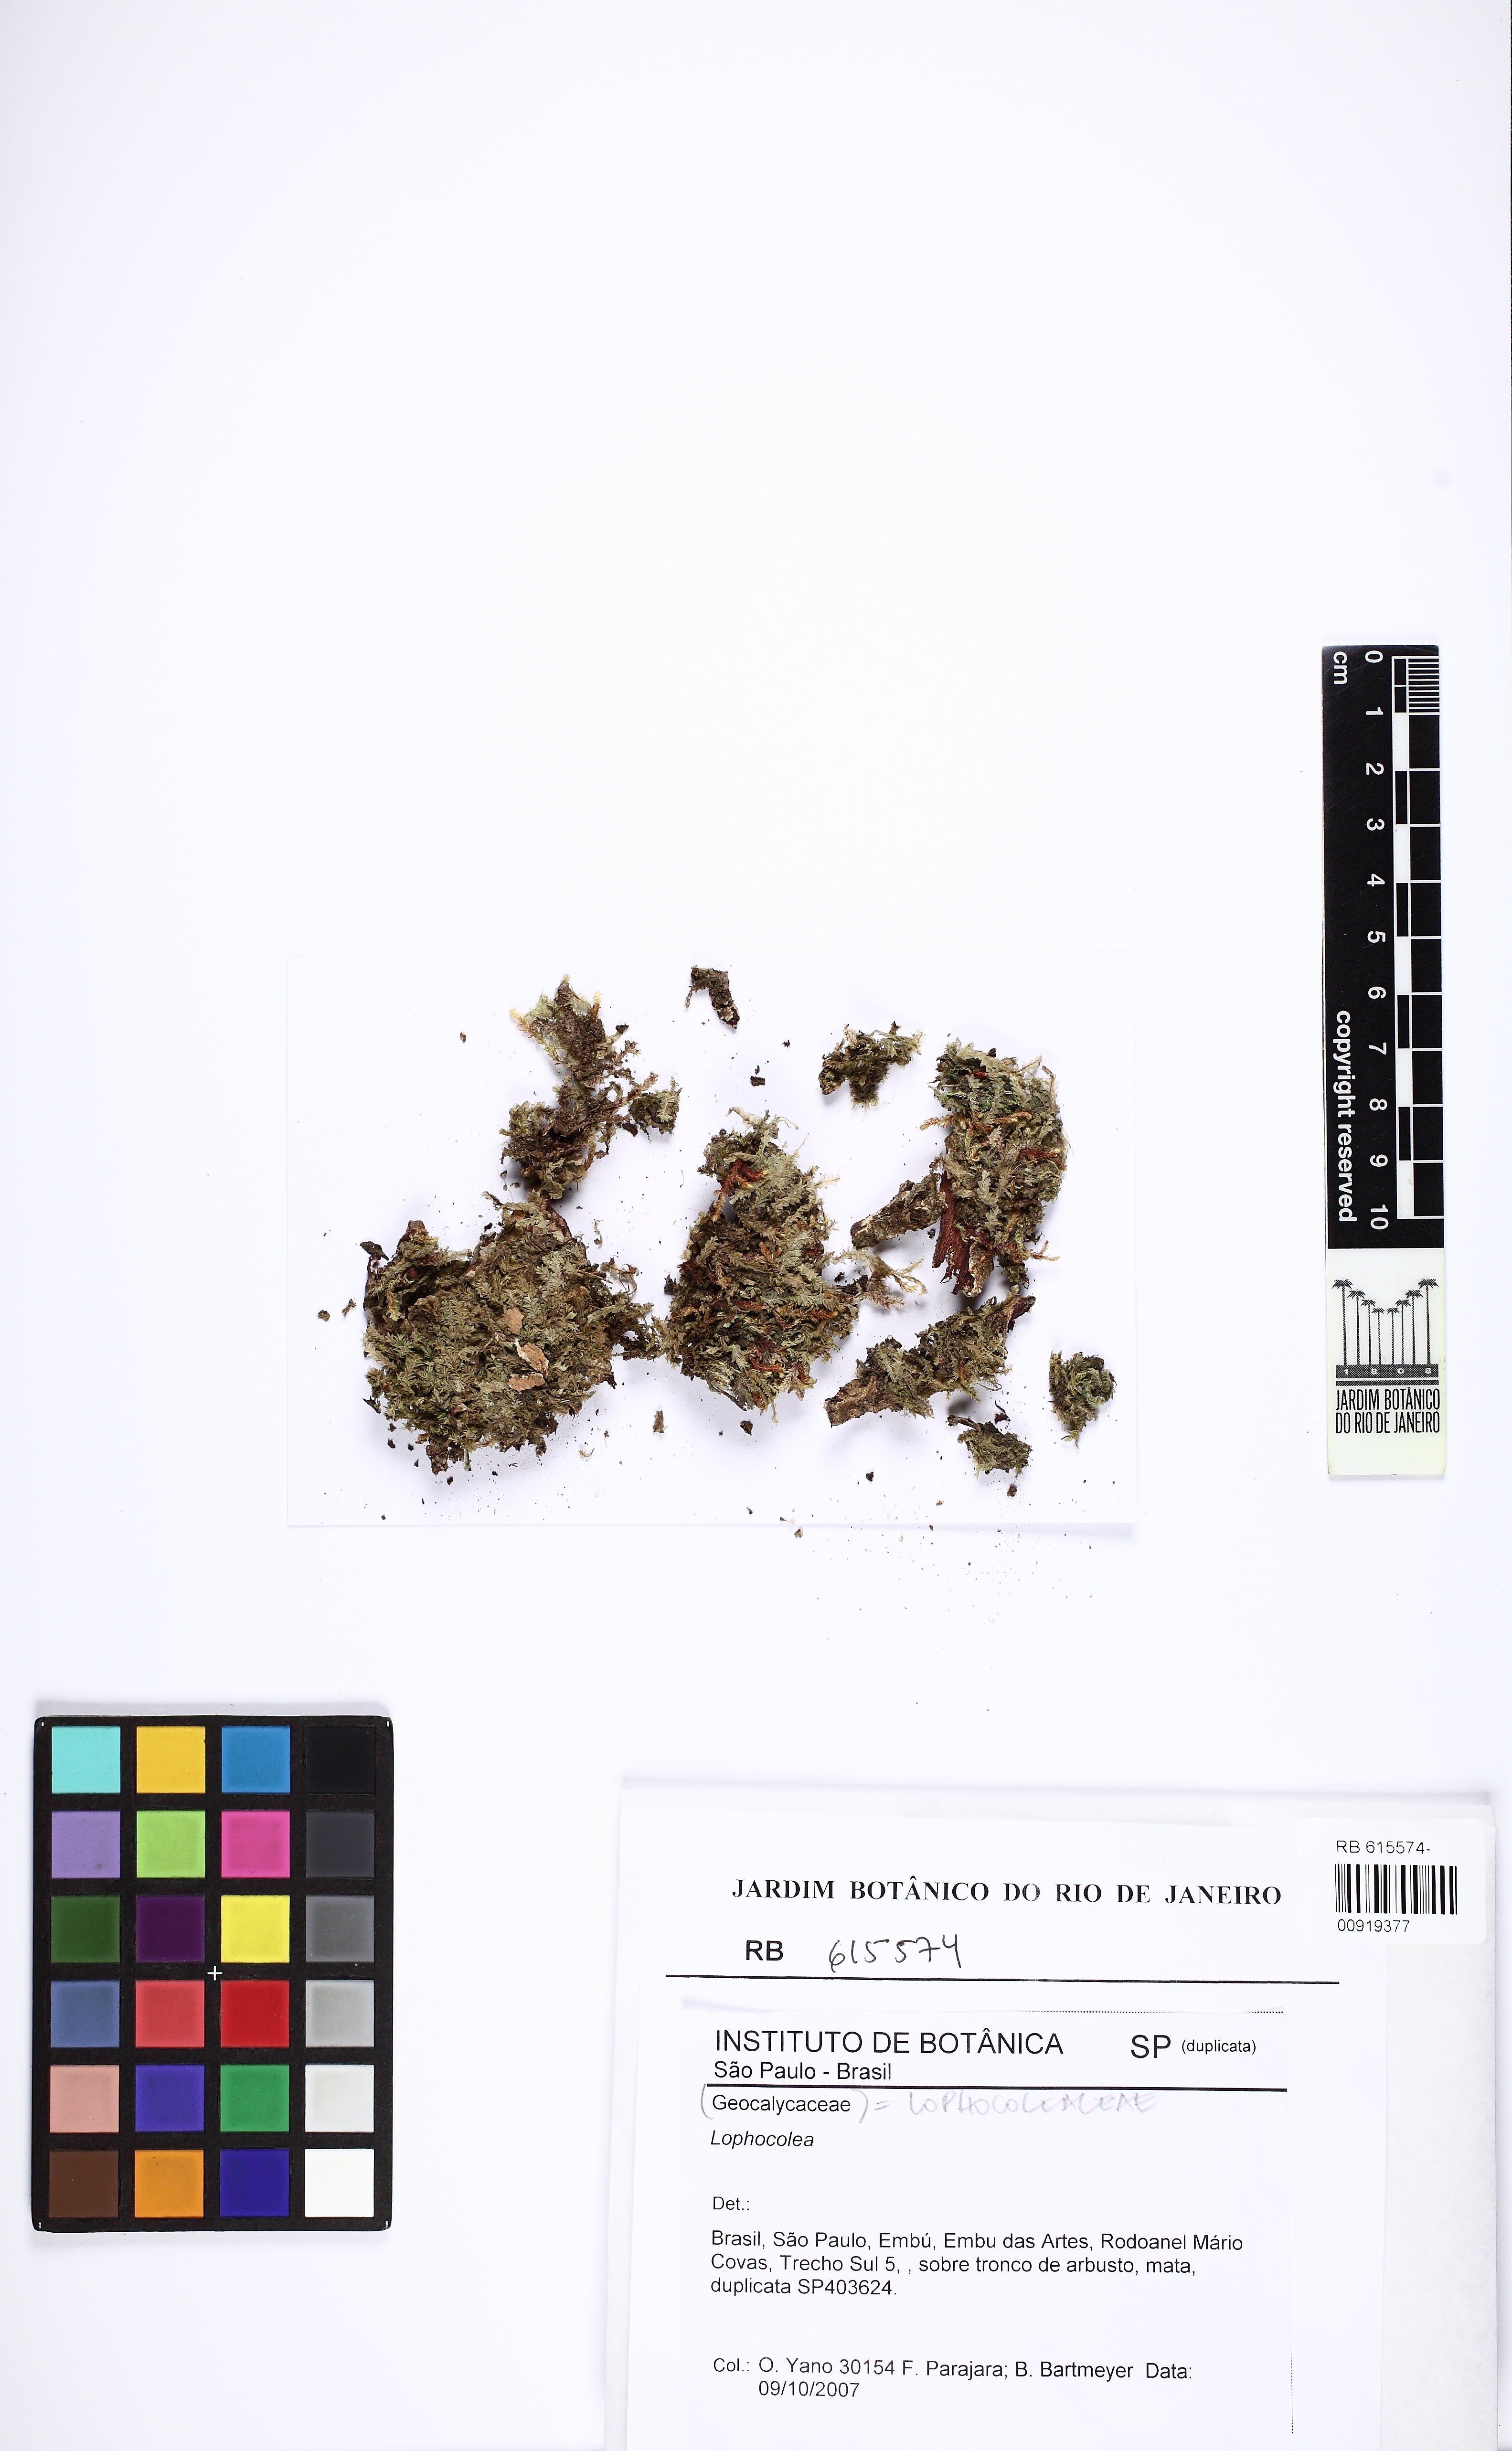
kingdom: Plantae
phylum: Marchantiophyta
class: Jungermanniopsida
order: Jungermanniales
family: Lophocoleaceae
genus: Lophocolea
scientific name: Lophocolea
